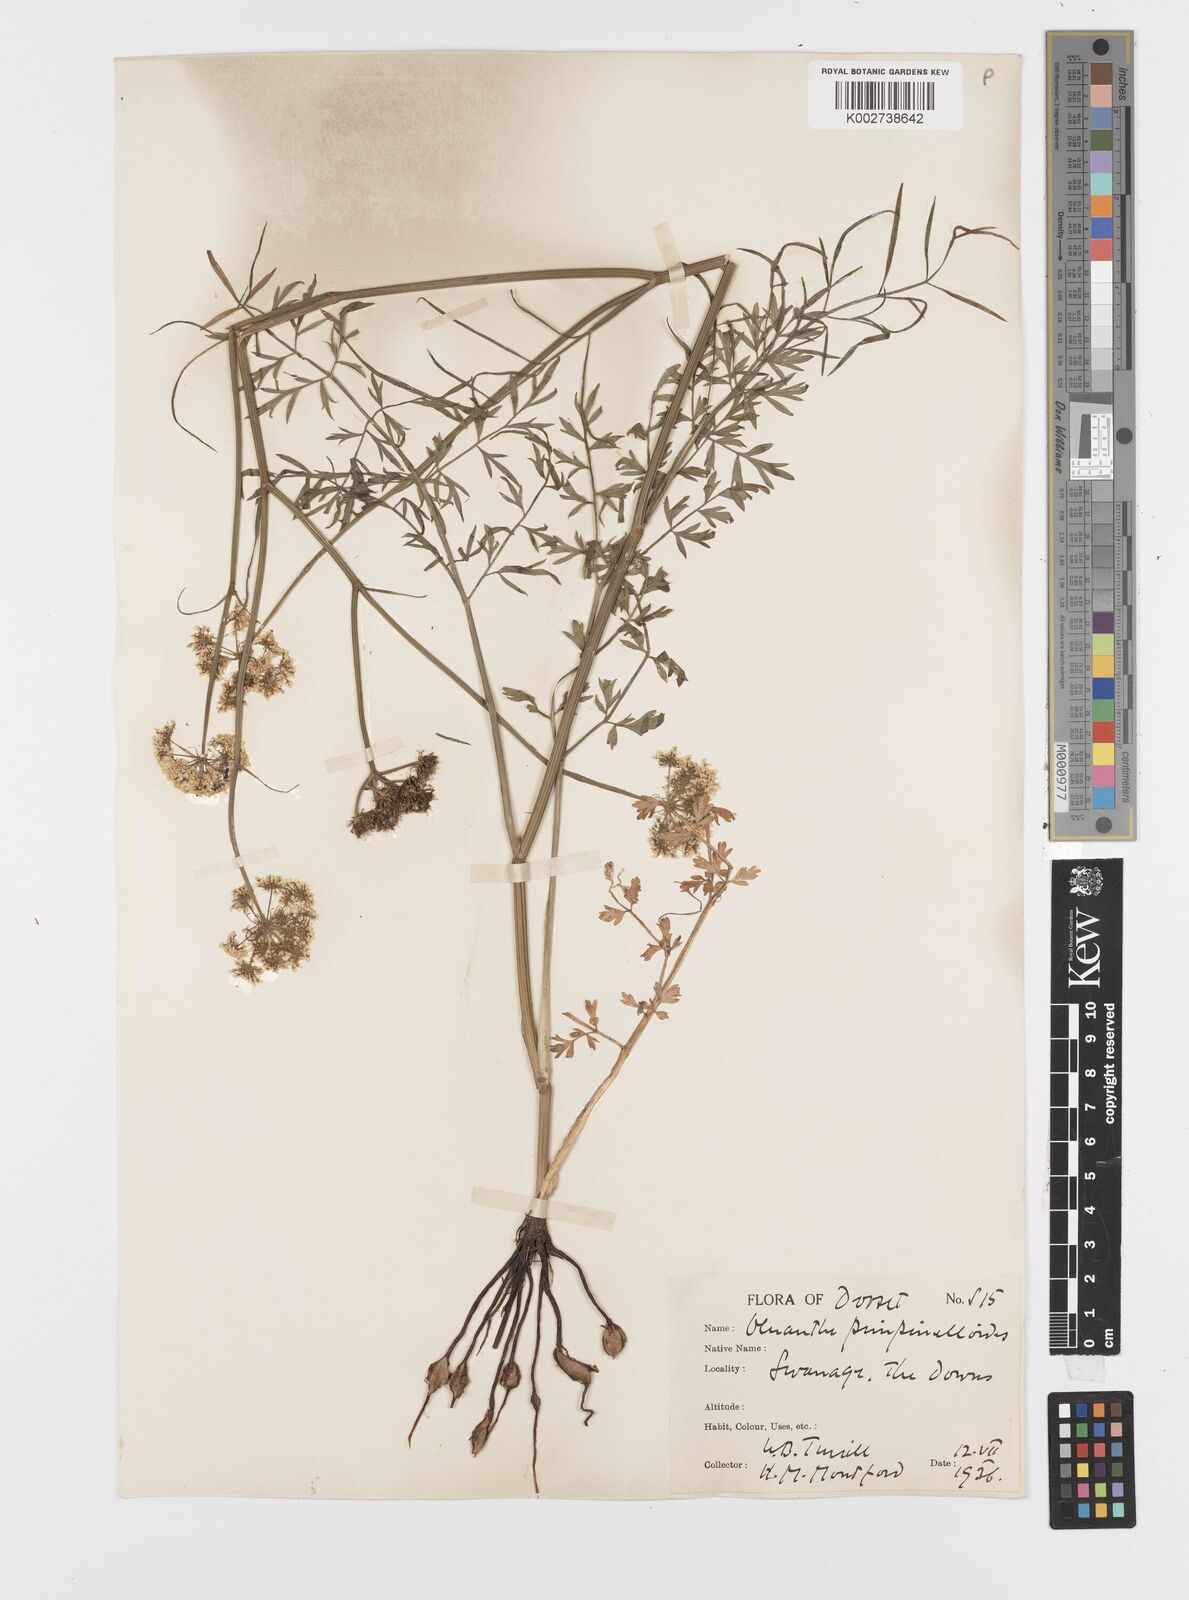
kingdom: Plantae
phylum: Tracheophyta
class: Magnoliopsida
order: Apiales
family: Apiaceae
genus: Oenanthe
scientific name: Oenanthe pimpinelloides
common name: Corky-fruited water-dropwort
